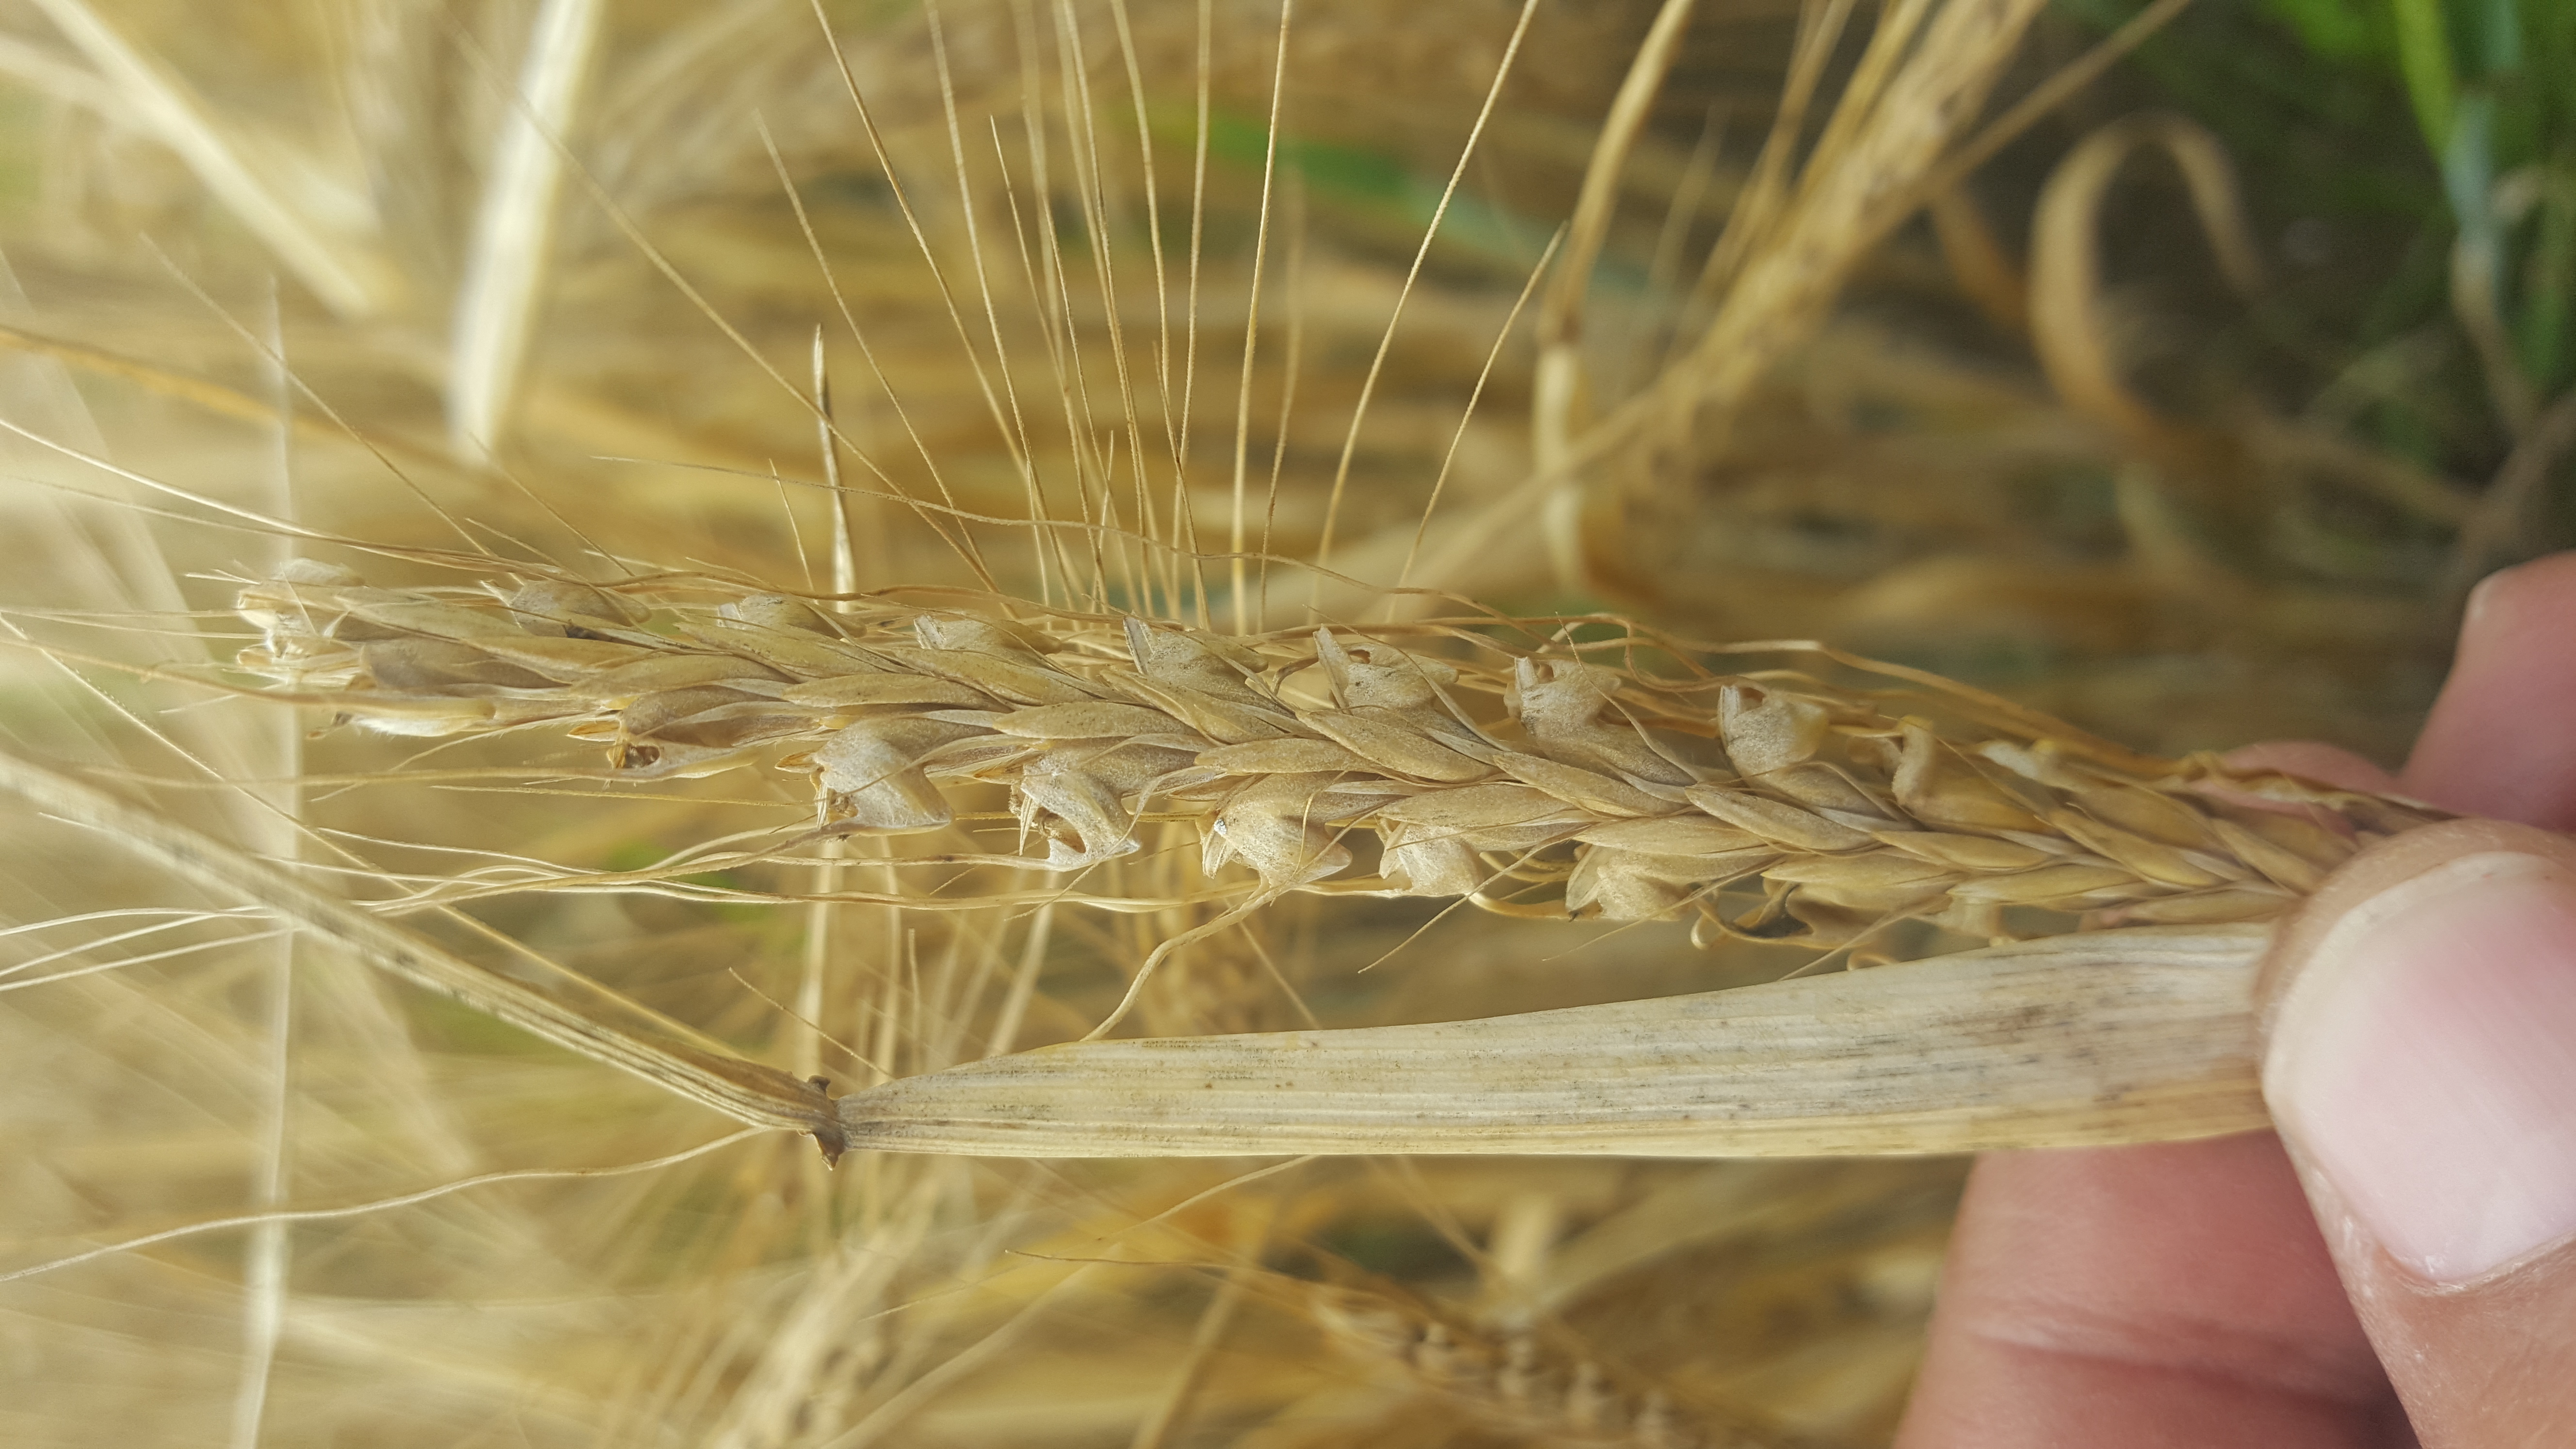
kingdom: Plantae
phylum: Tracheophyta
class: Liliopsida
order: Poales
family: Poaceae
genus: Hordeum
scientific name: Hordeum vulgare
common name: Common barley
